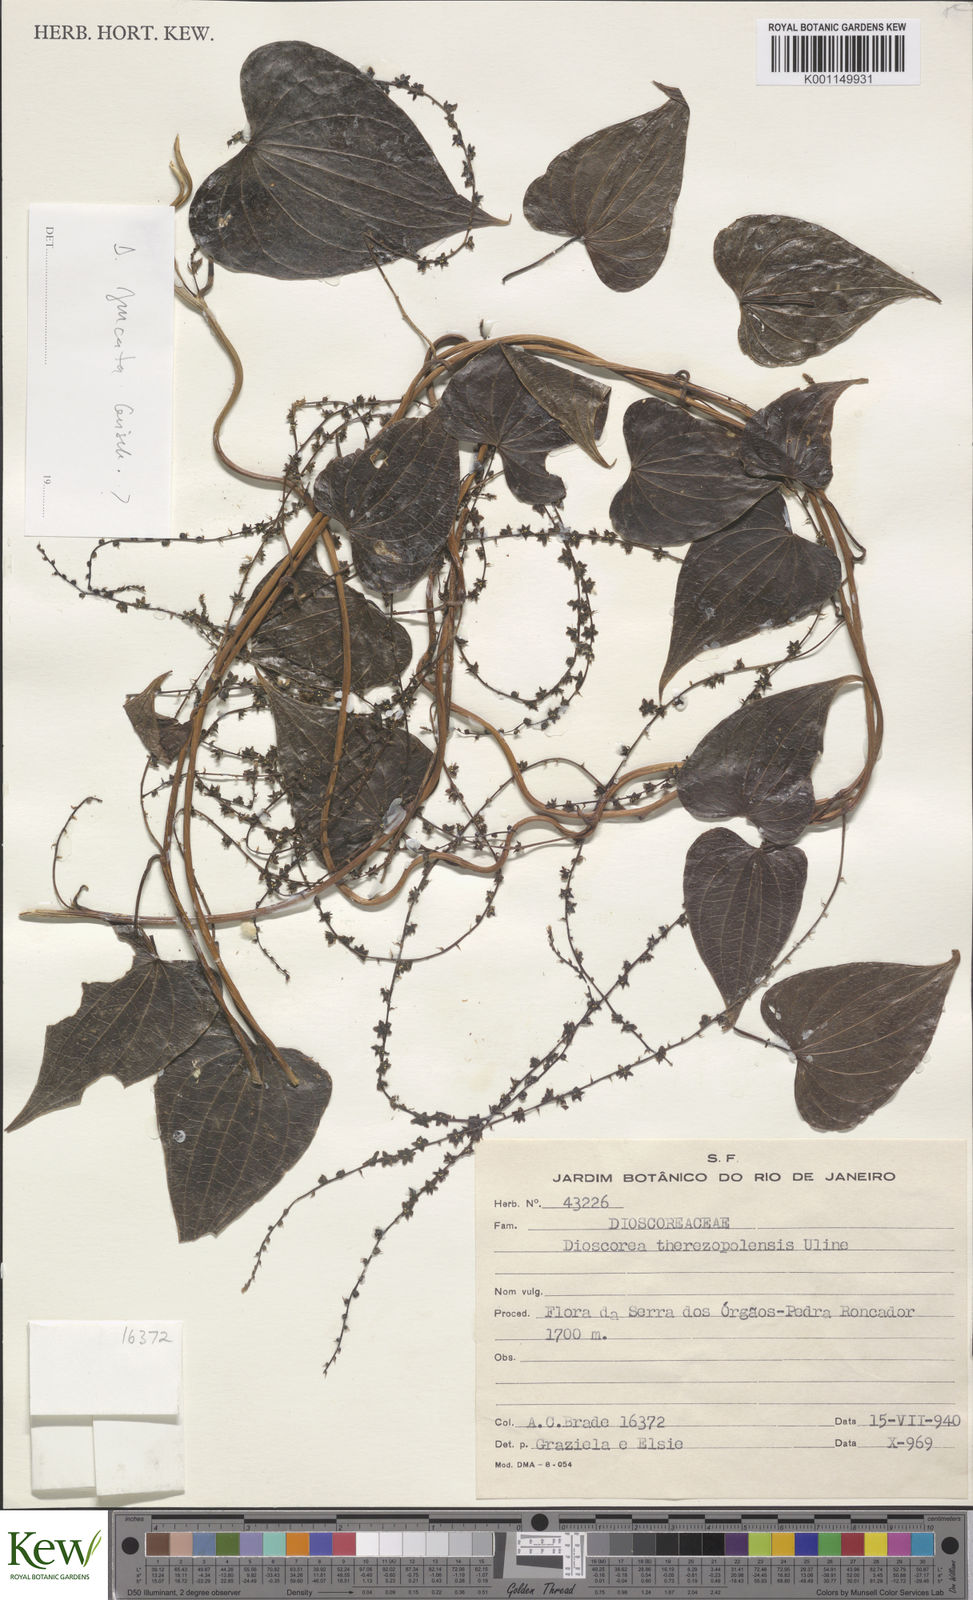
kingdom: Plantae
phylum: Tracheophyta
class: Liliopsida
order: Dioscoreales
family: Dioscoreaceae
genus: Dioscorea
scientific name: Dioscorea therezopolensis
